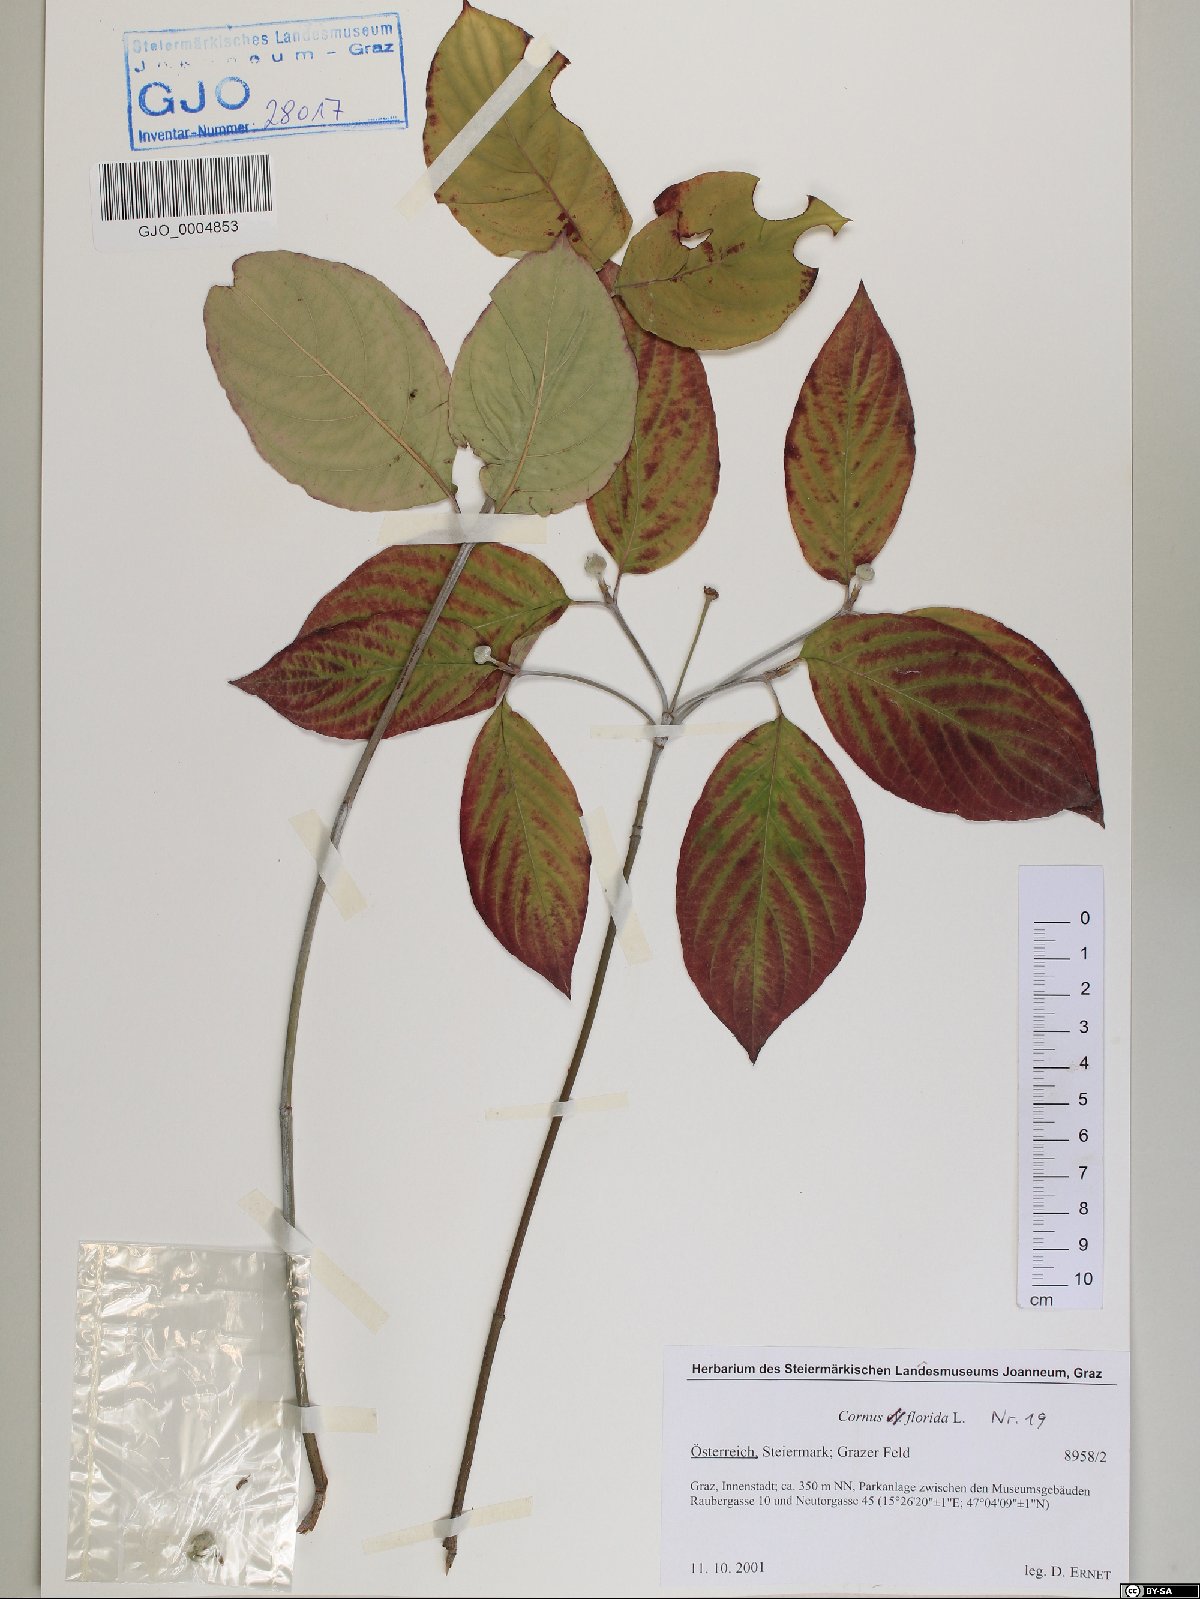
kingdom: Plantae
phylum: Tracheophyta
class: Magnoliopsida
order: Cornales
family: Cornaceae
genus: Cornus
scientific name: Cornus florida
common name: Flowering dogwood
